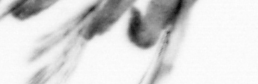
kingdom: Animalia
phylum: Annelida
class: Polychaeta
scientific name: Polychaeta
